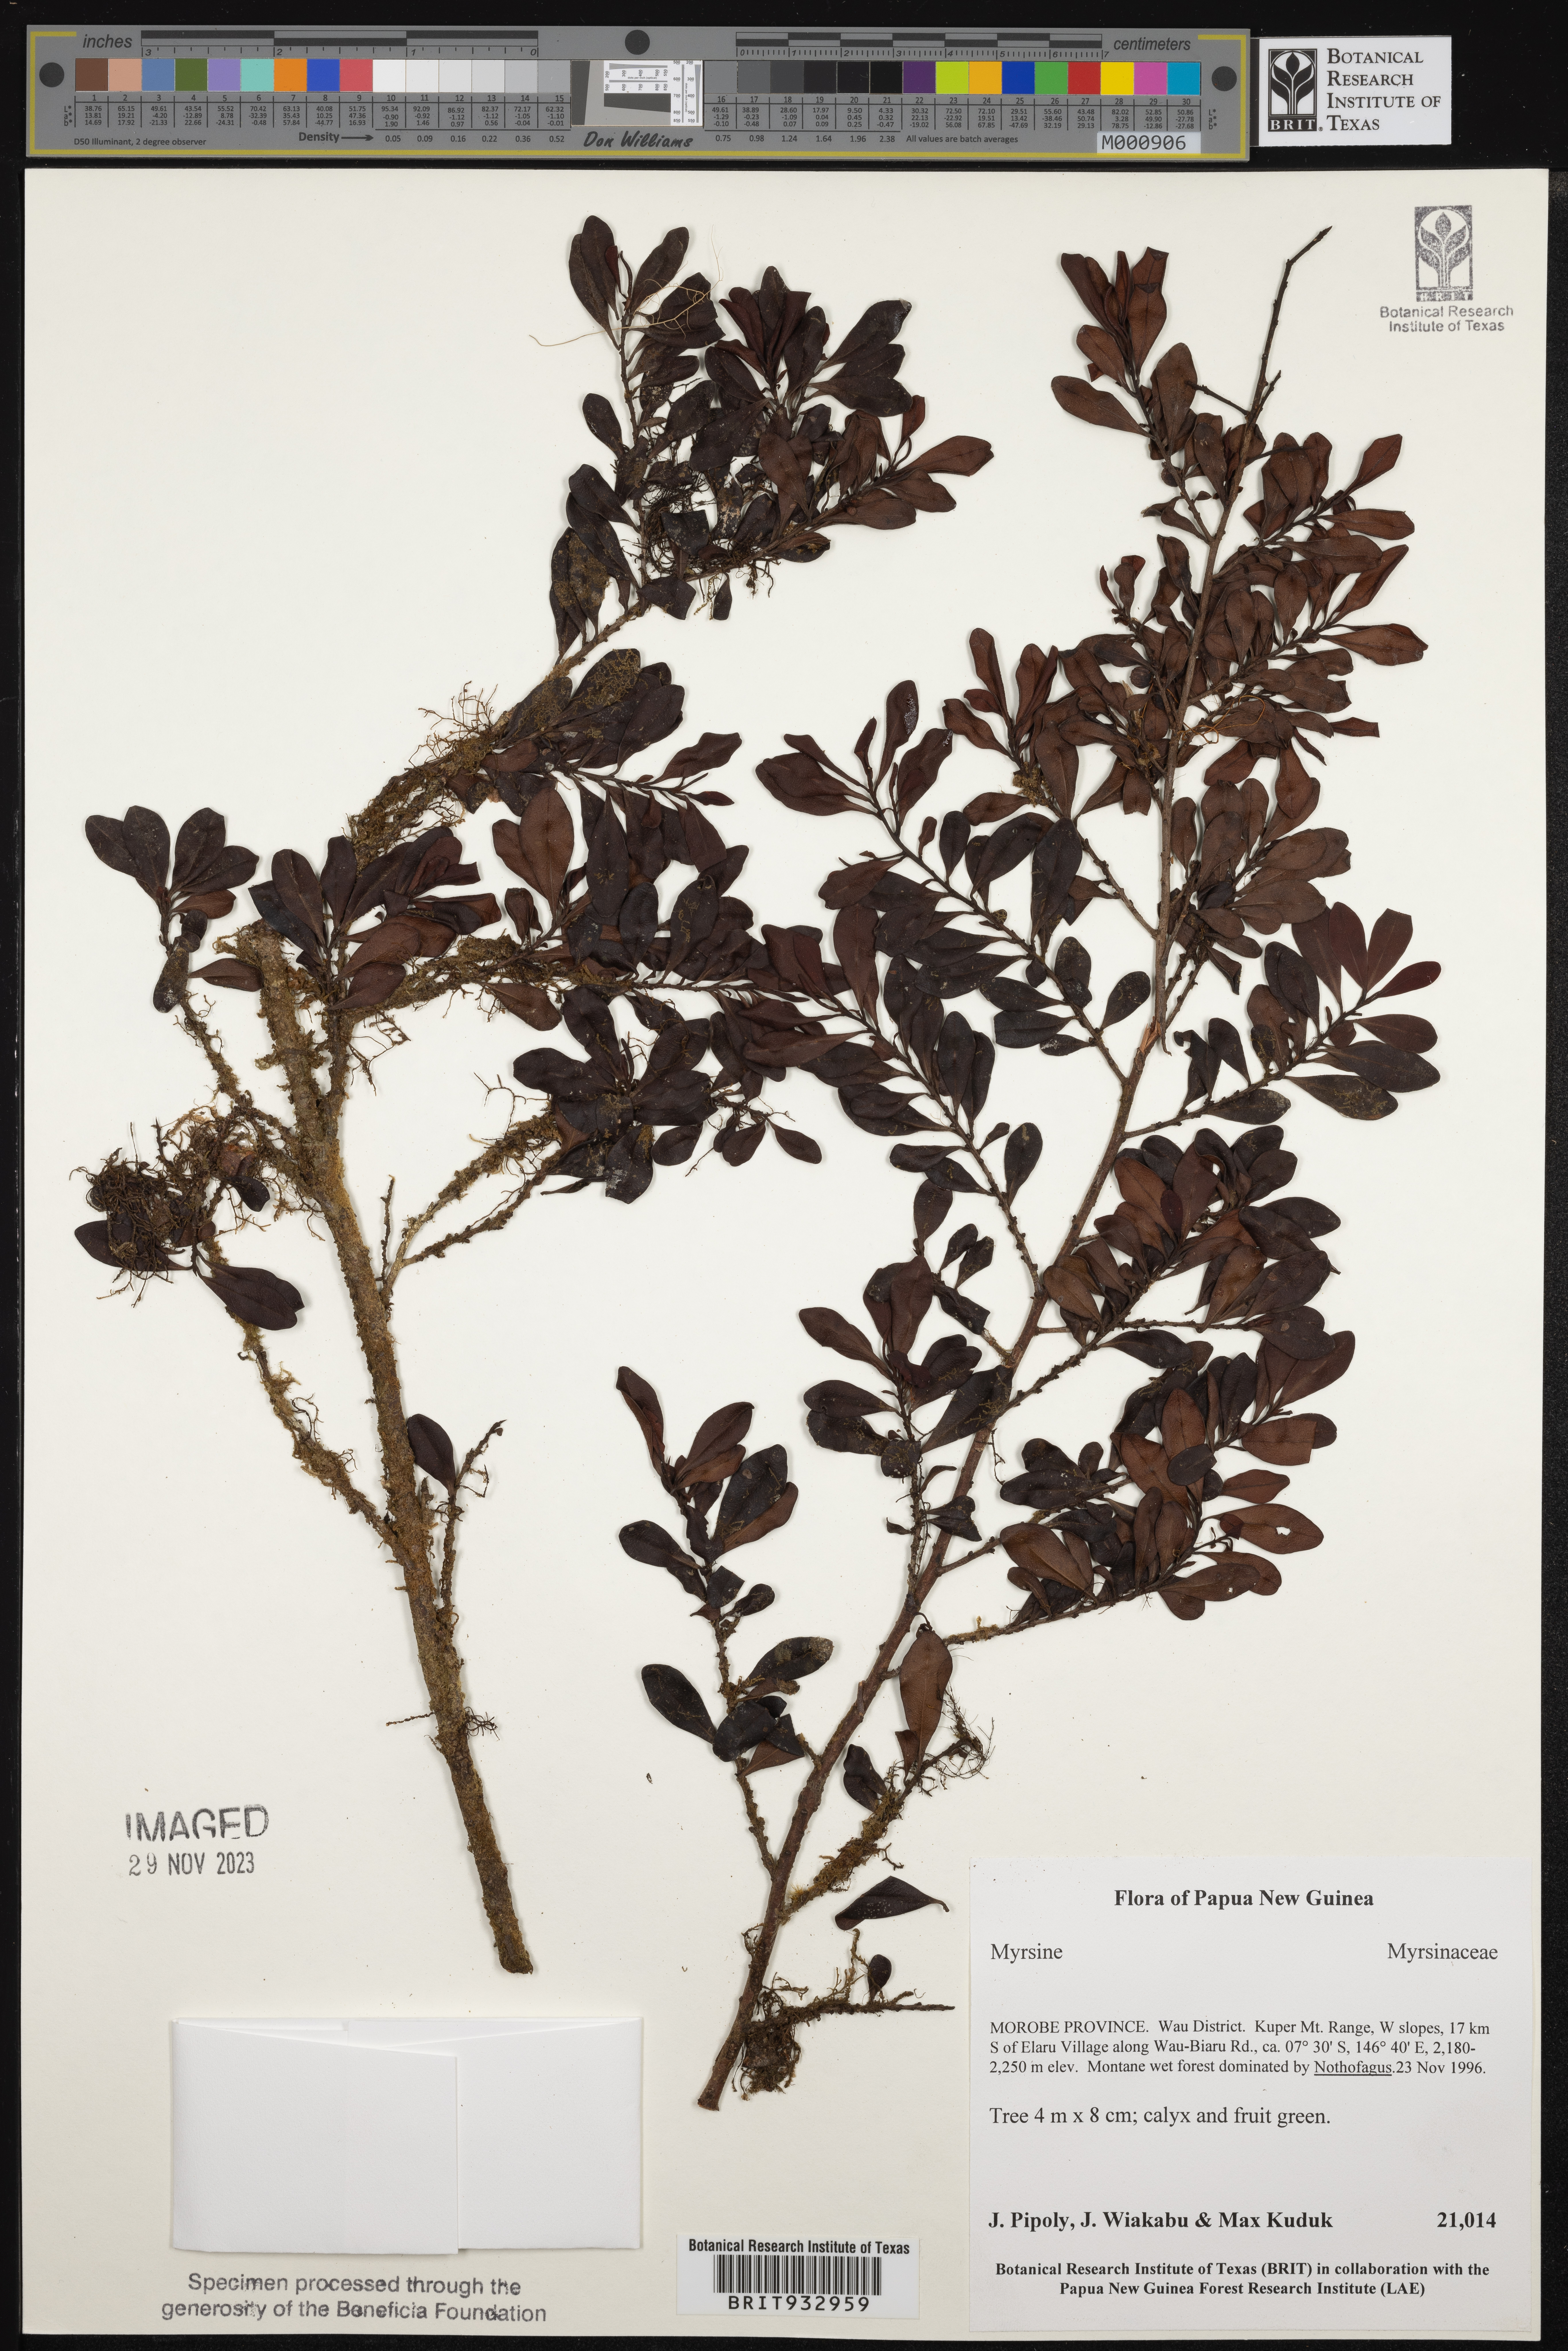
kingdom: Plantae
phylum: Tracheophyta
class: Magnoliopsida
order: Ericales
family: Primulaceae
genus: Myrsine
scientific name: Myrsine
